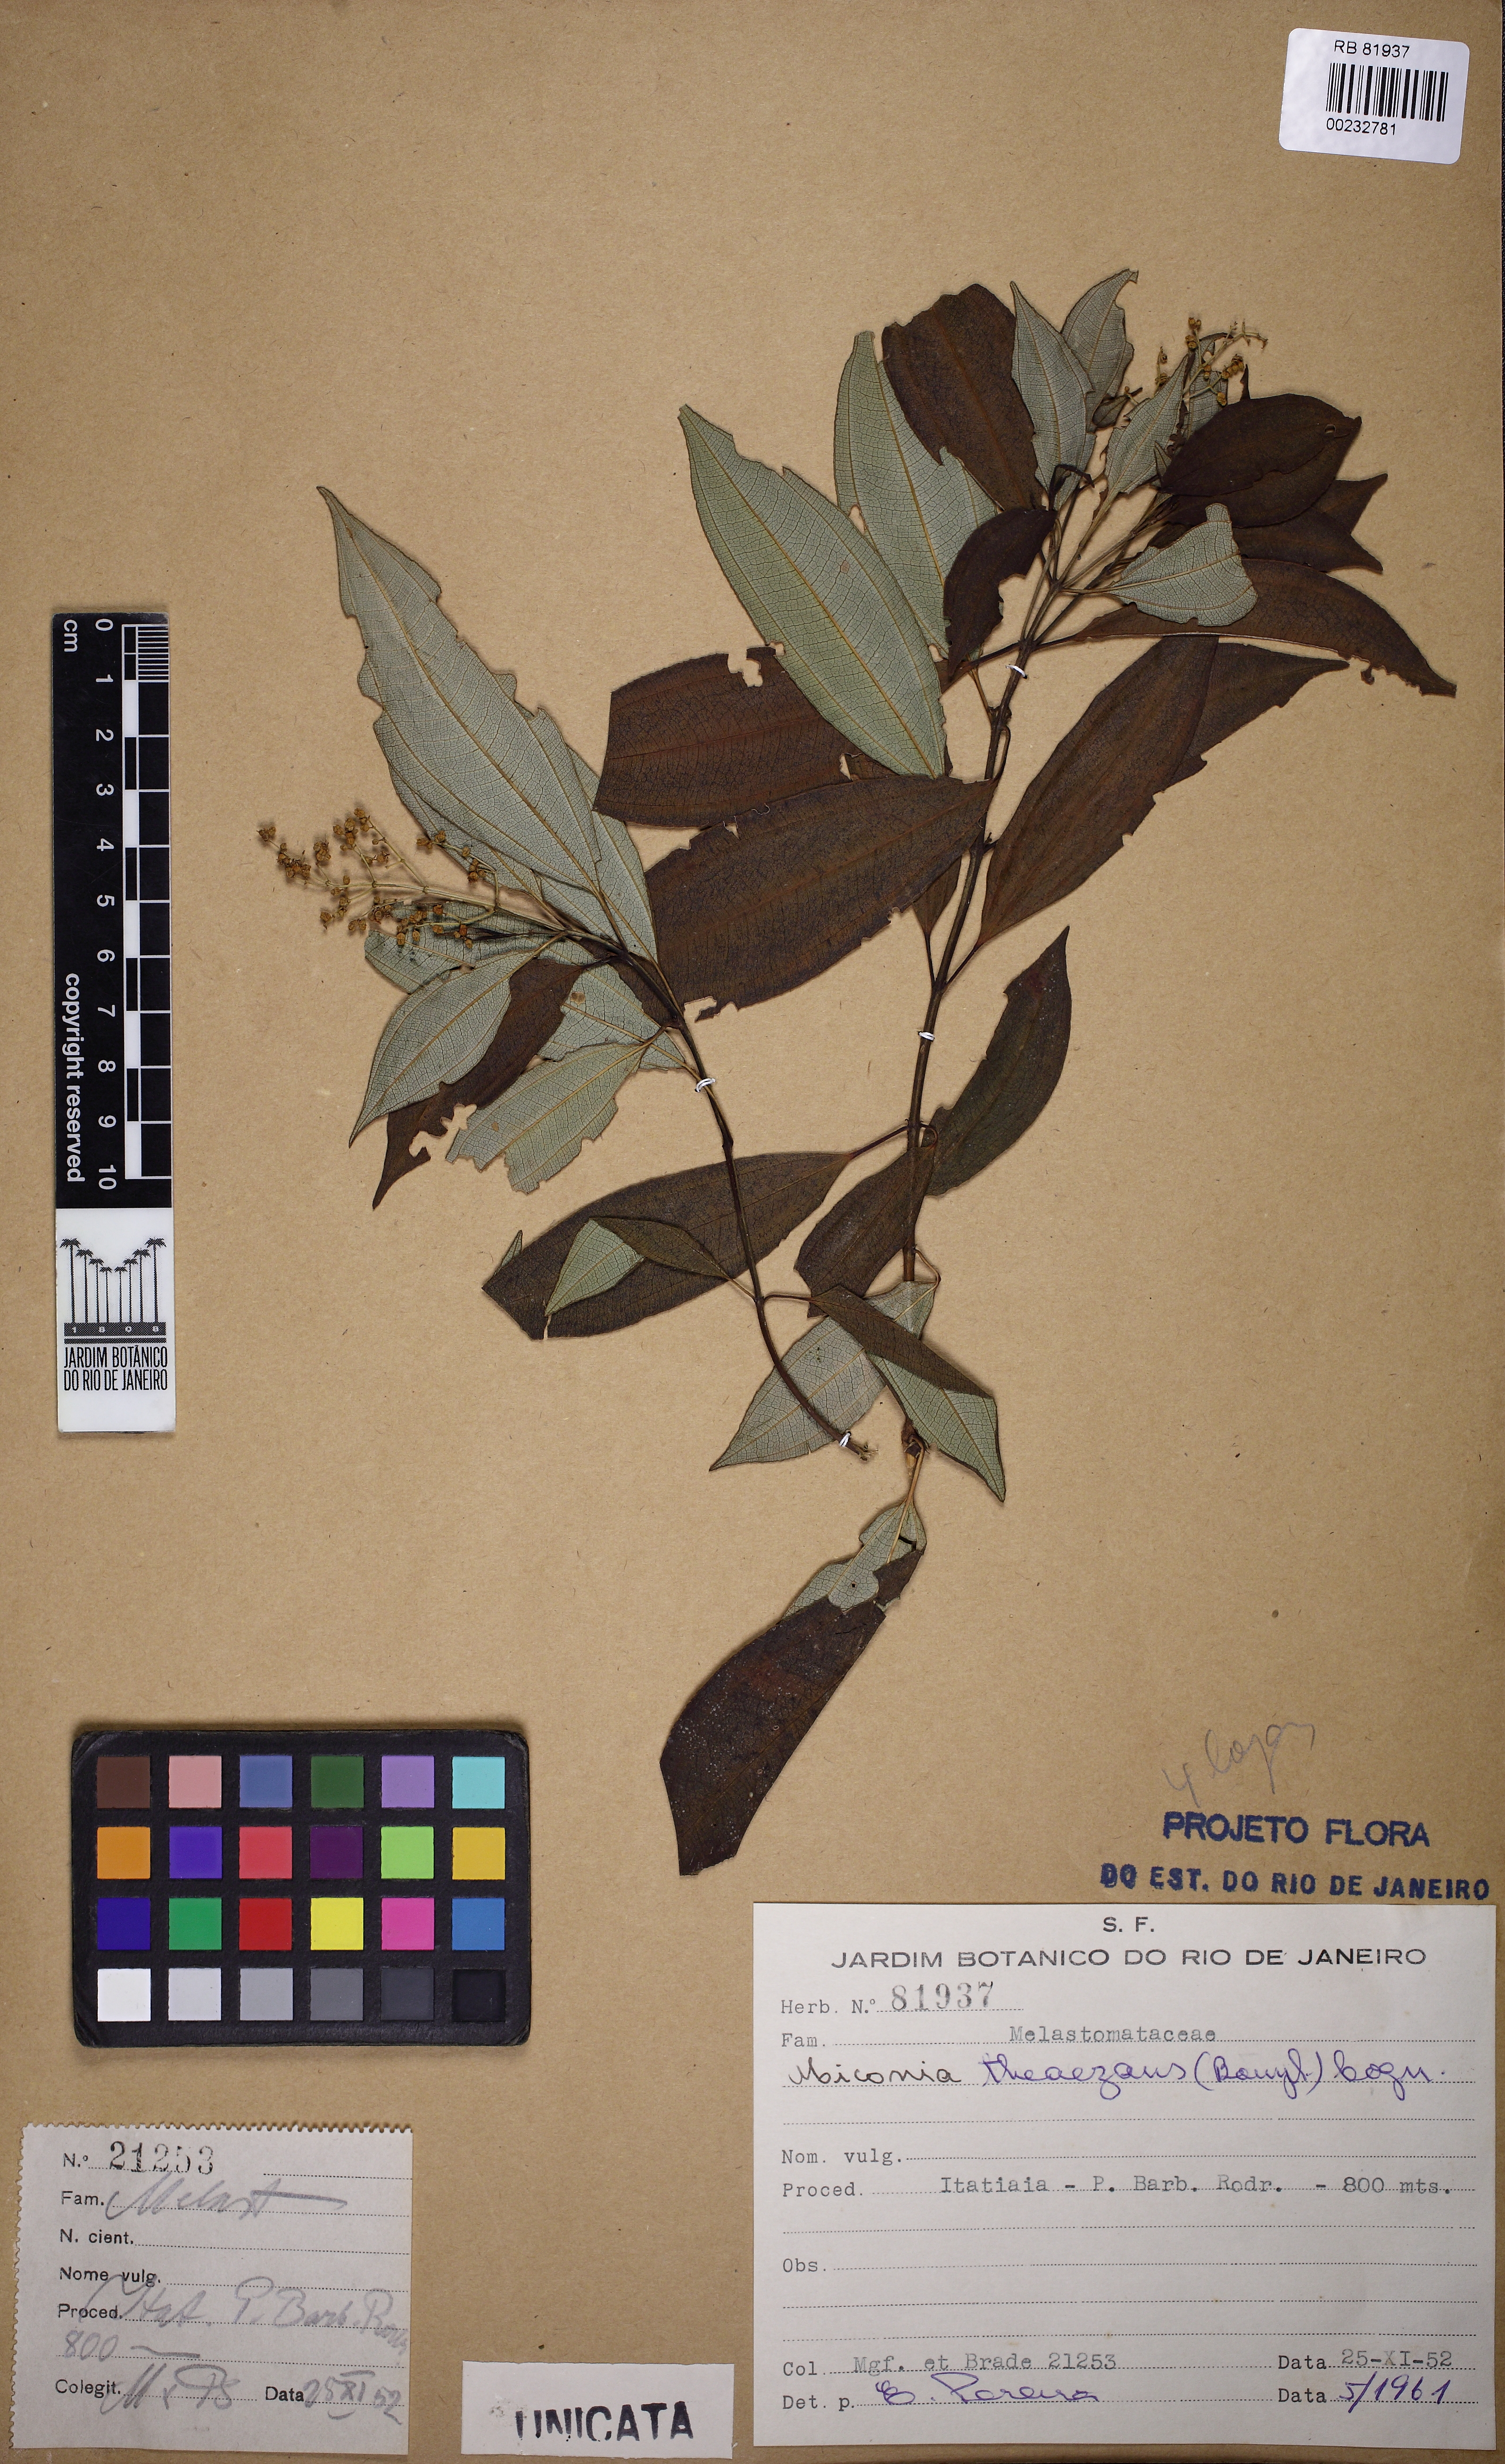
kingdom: Plantae
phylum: Tracheophyta
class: Magnoliopsida
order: Myrtales
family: Melastomataceae
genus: Miconia
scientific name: Miconia theizans
